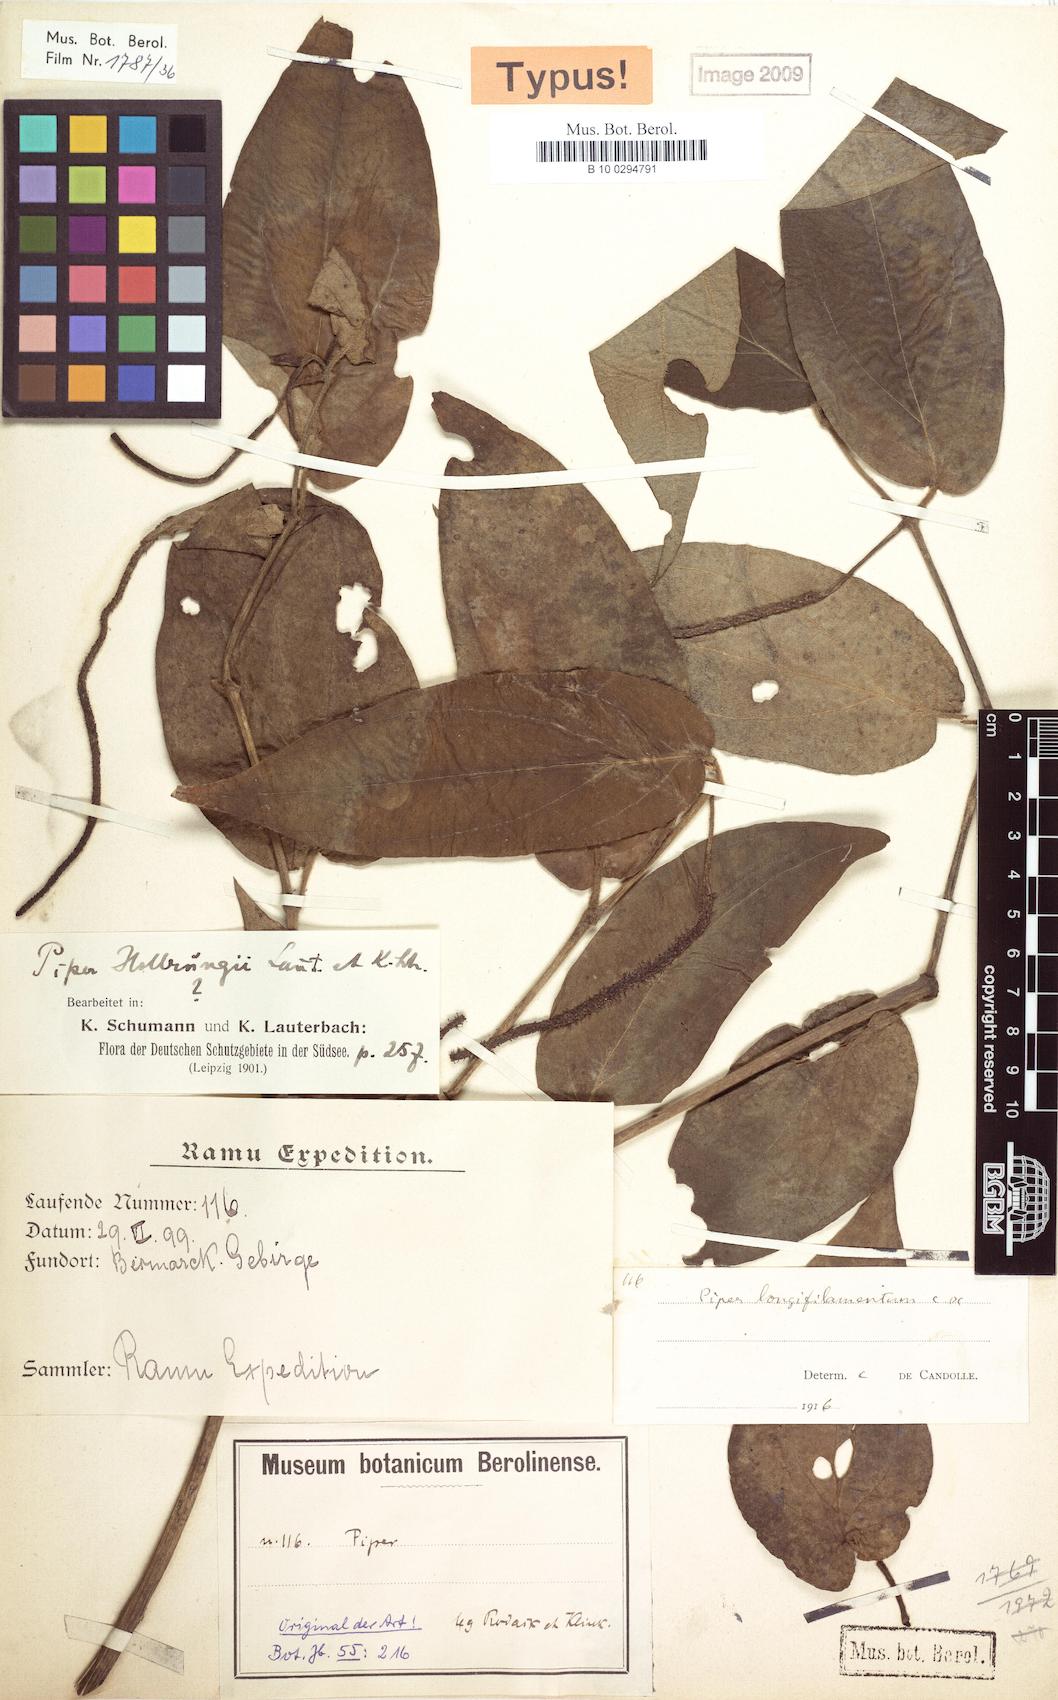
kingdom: Plantae
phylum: Tracheophyta
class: Magnoliopsida
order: Piperales
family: Piperaceae
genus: Piper
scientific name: Piper longifilamentum
